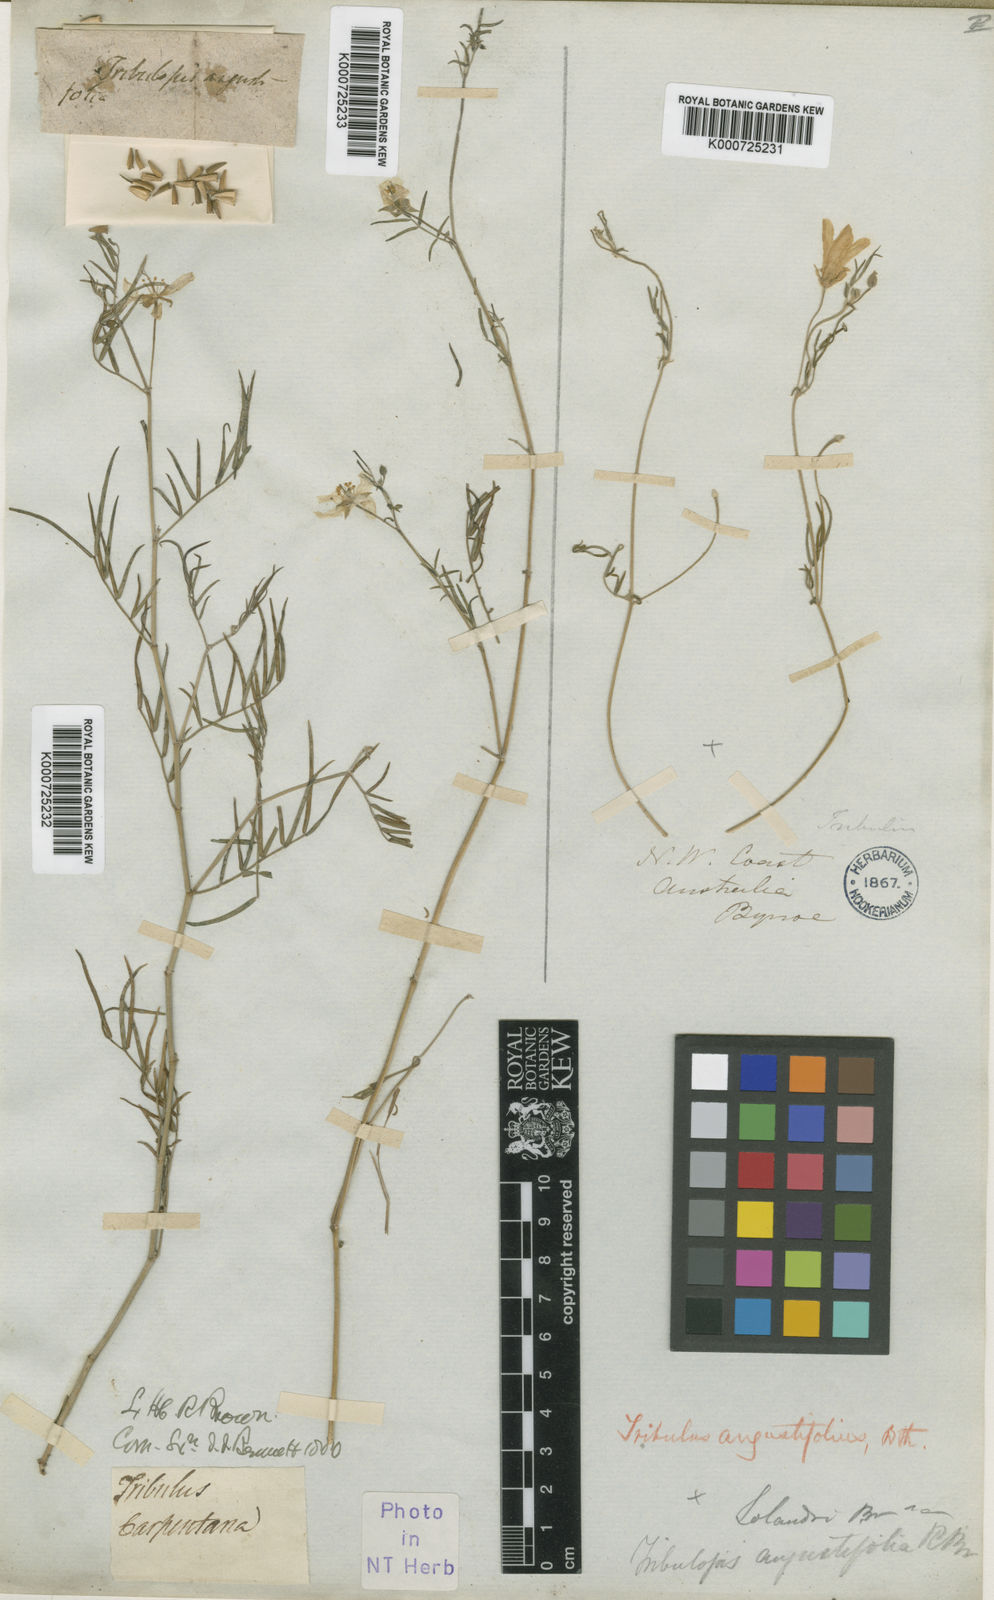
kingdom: Plantae
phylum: Tracheophyta
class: Magnoliopsida
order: Zygophyllales
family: Zygophyllaceae
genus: Tribulopis
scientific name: Tribulopis angustifolia
